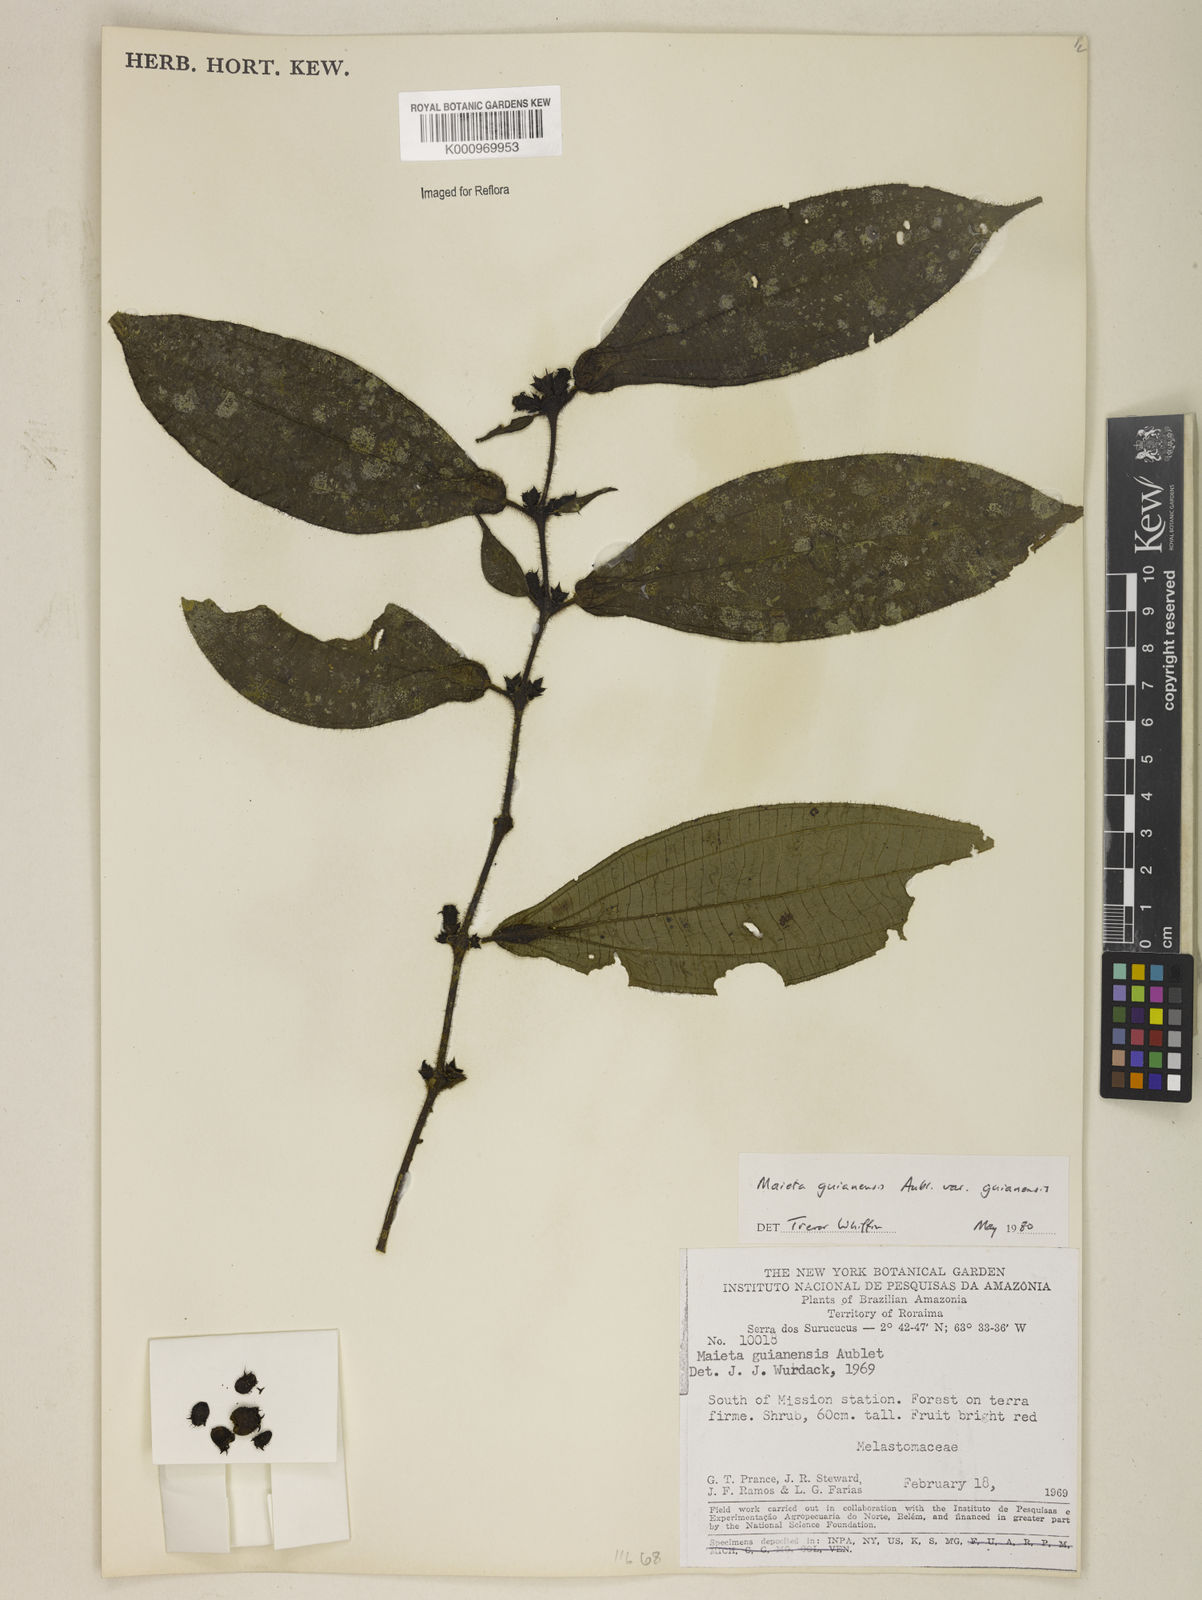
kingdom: Plantae
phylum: Tracheophyta
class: Magnoliopsida
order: Myrtales
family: Melastomataceae
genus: Miconia
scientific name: Miconia mayeta
